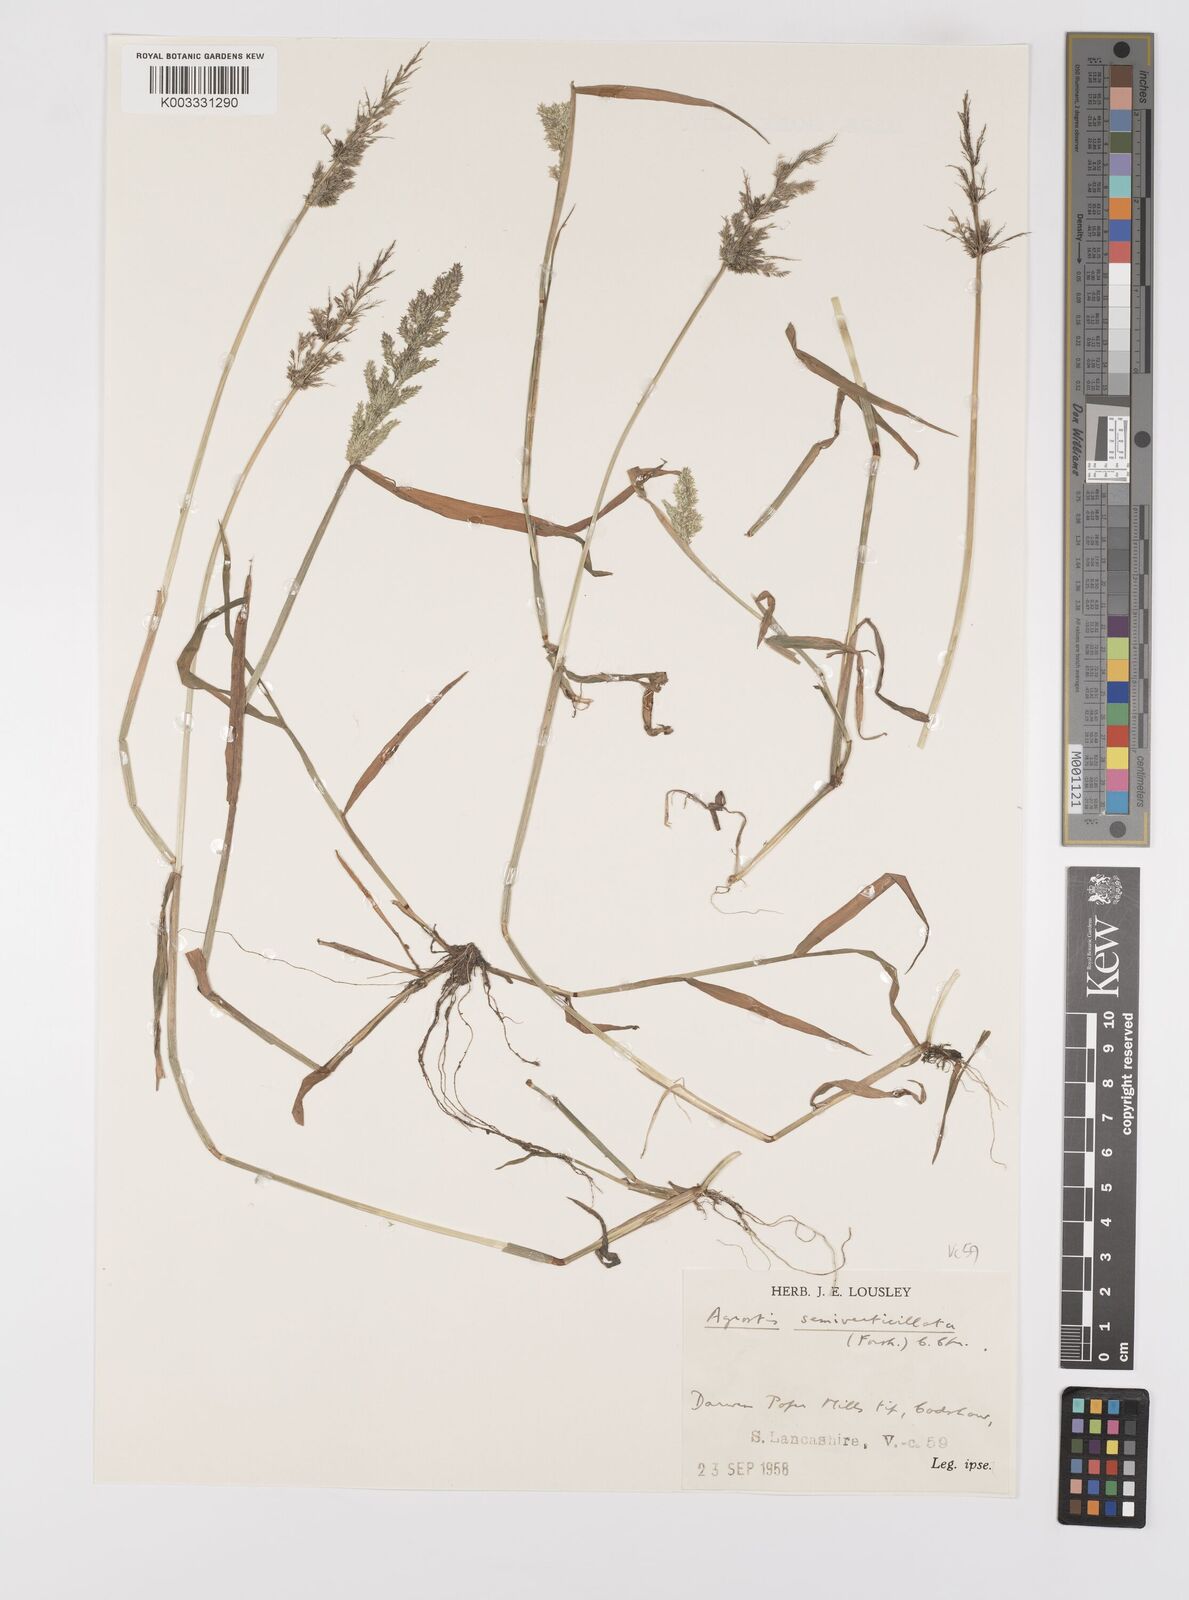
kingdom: Plantae
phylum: Tracheophyta
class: Liliopsida
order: Poales
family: Poaceae
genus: Polypogon
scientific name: Polypogon viridis
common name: Water bent
